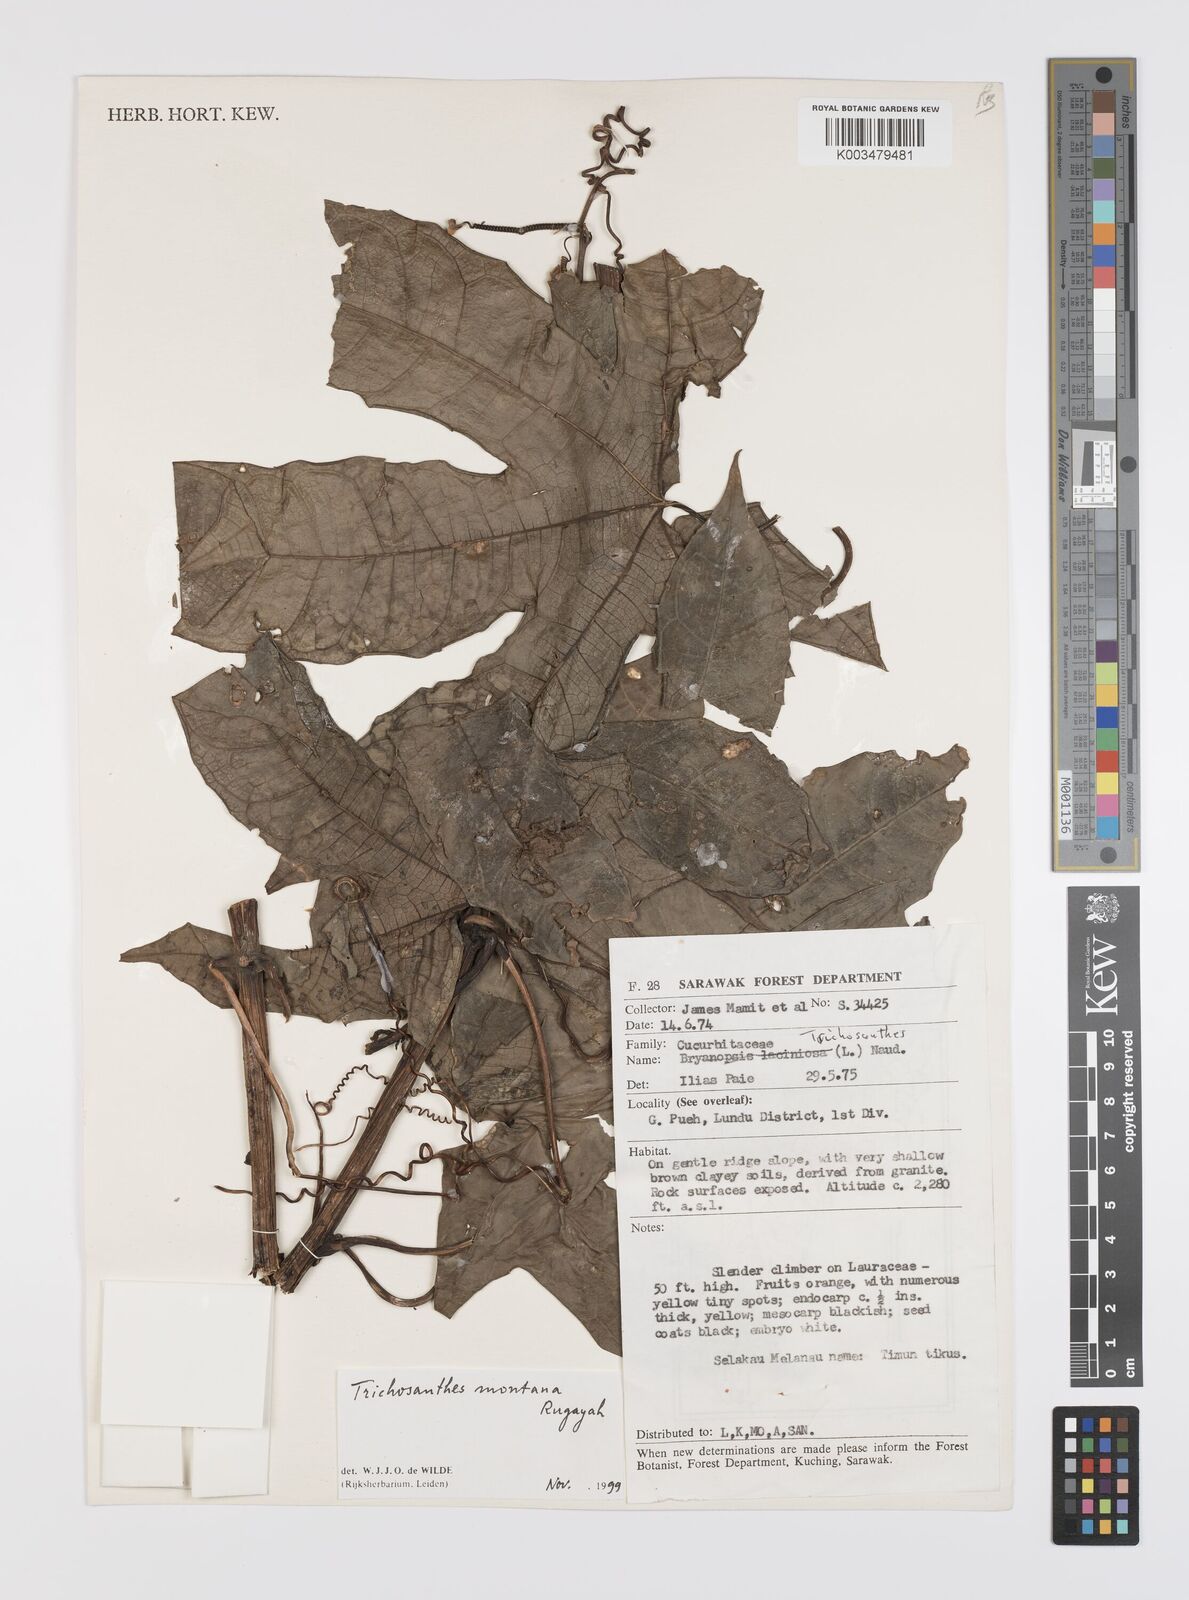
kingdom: Plantae
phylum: Tracheophyta
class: Magnoliopsida
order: Cucurbitales
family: Cucurbitaceae
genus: Trichosanthes
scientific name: Trichosanthes montana
